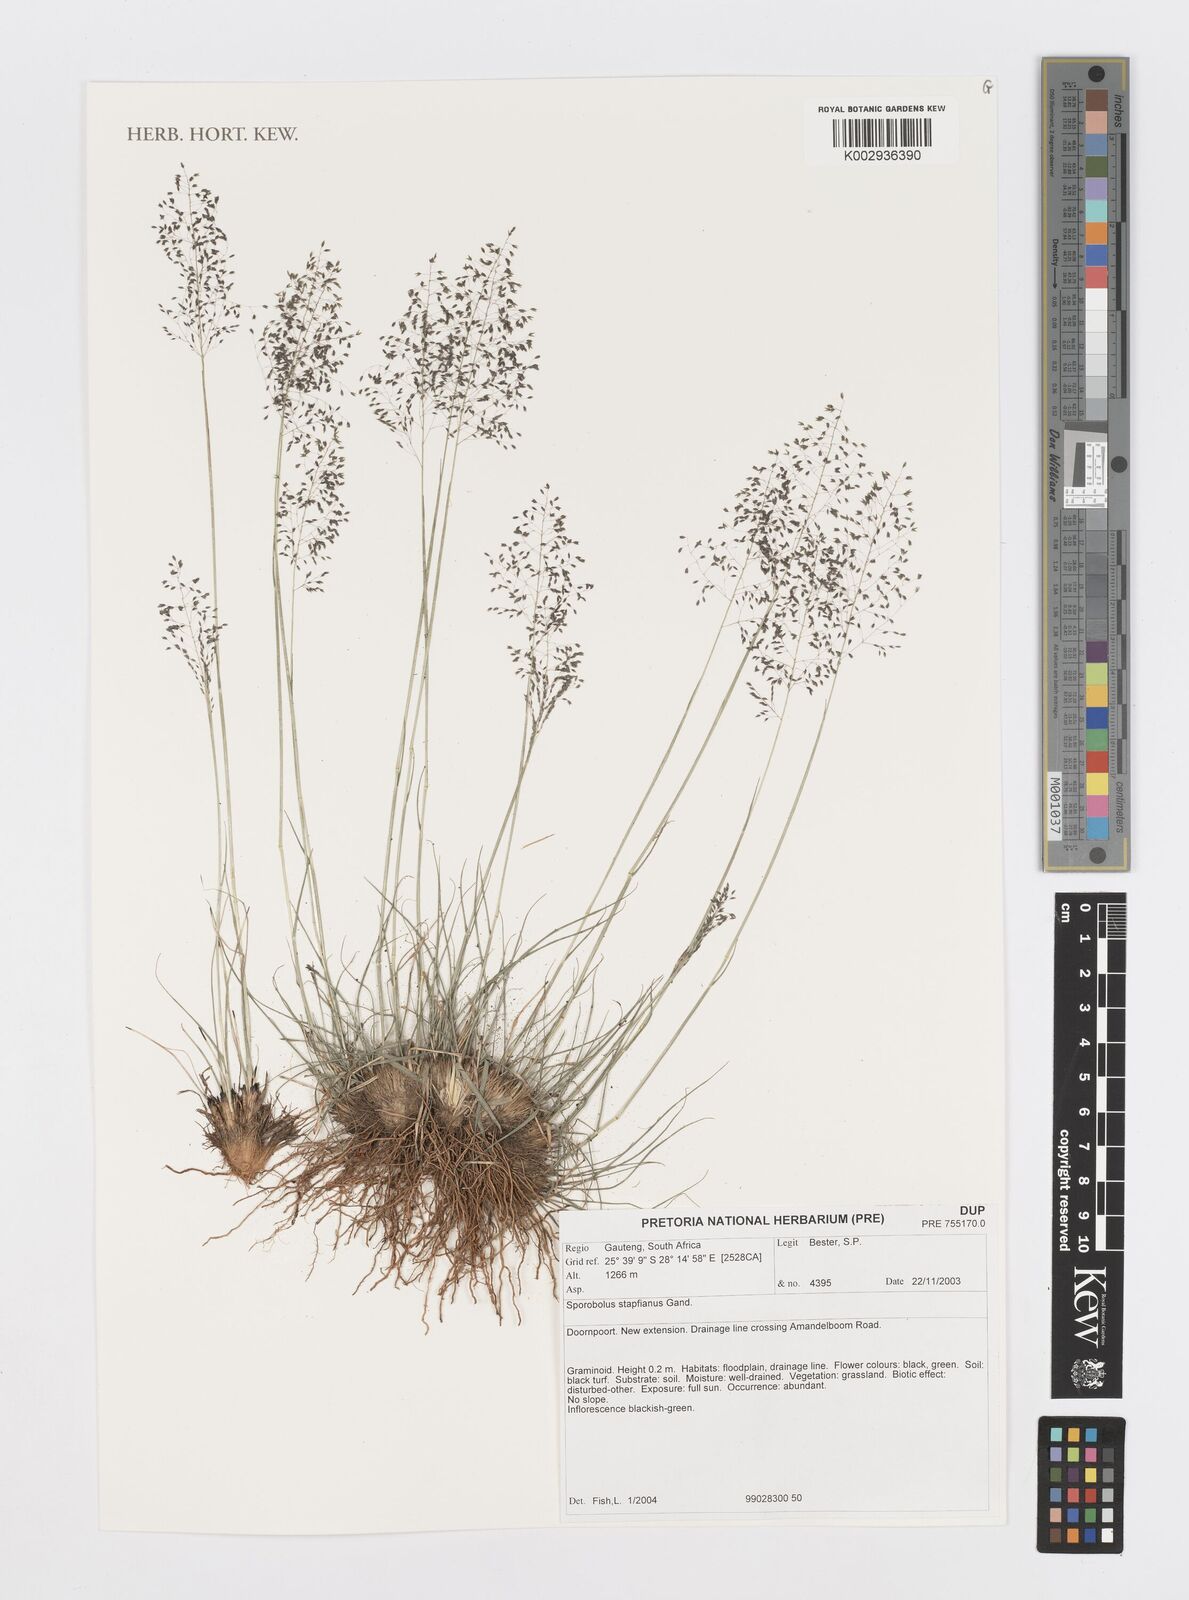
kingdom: Plantae
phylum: Tracheophyta
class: Liliopsida
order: Poales
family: Poaceae
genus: Sporobolus
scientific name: Sporobolus stapfianus
